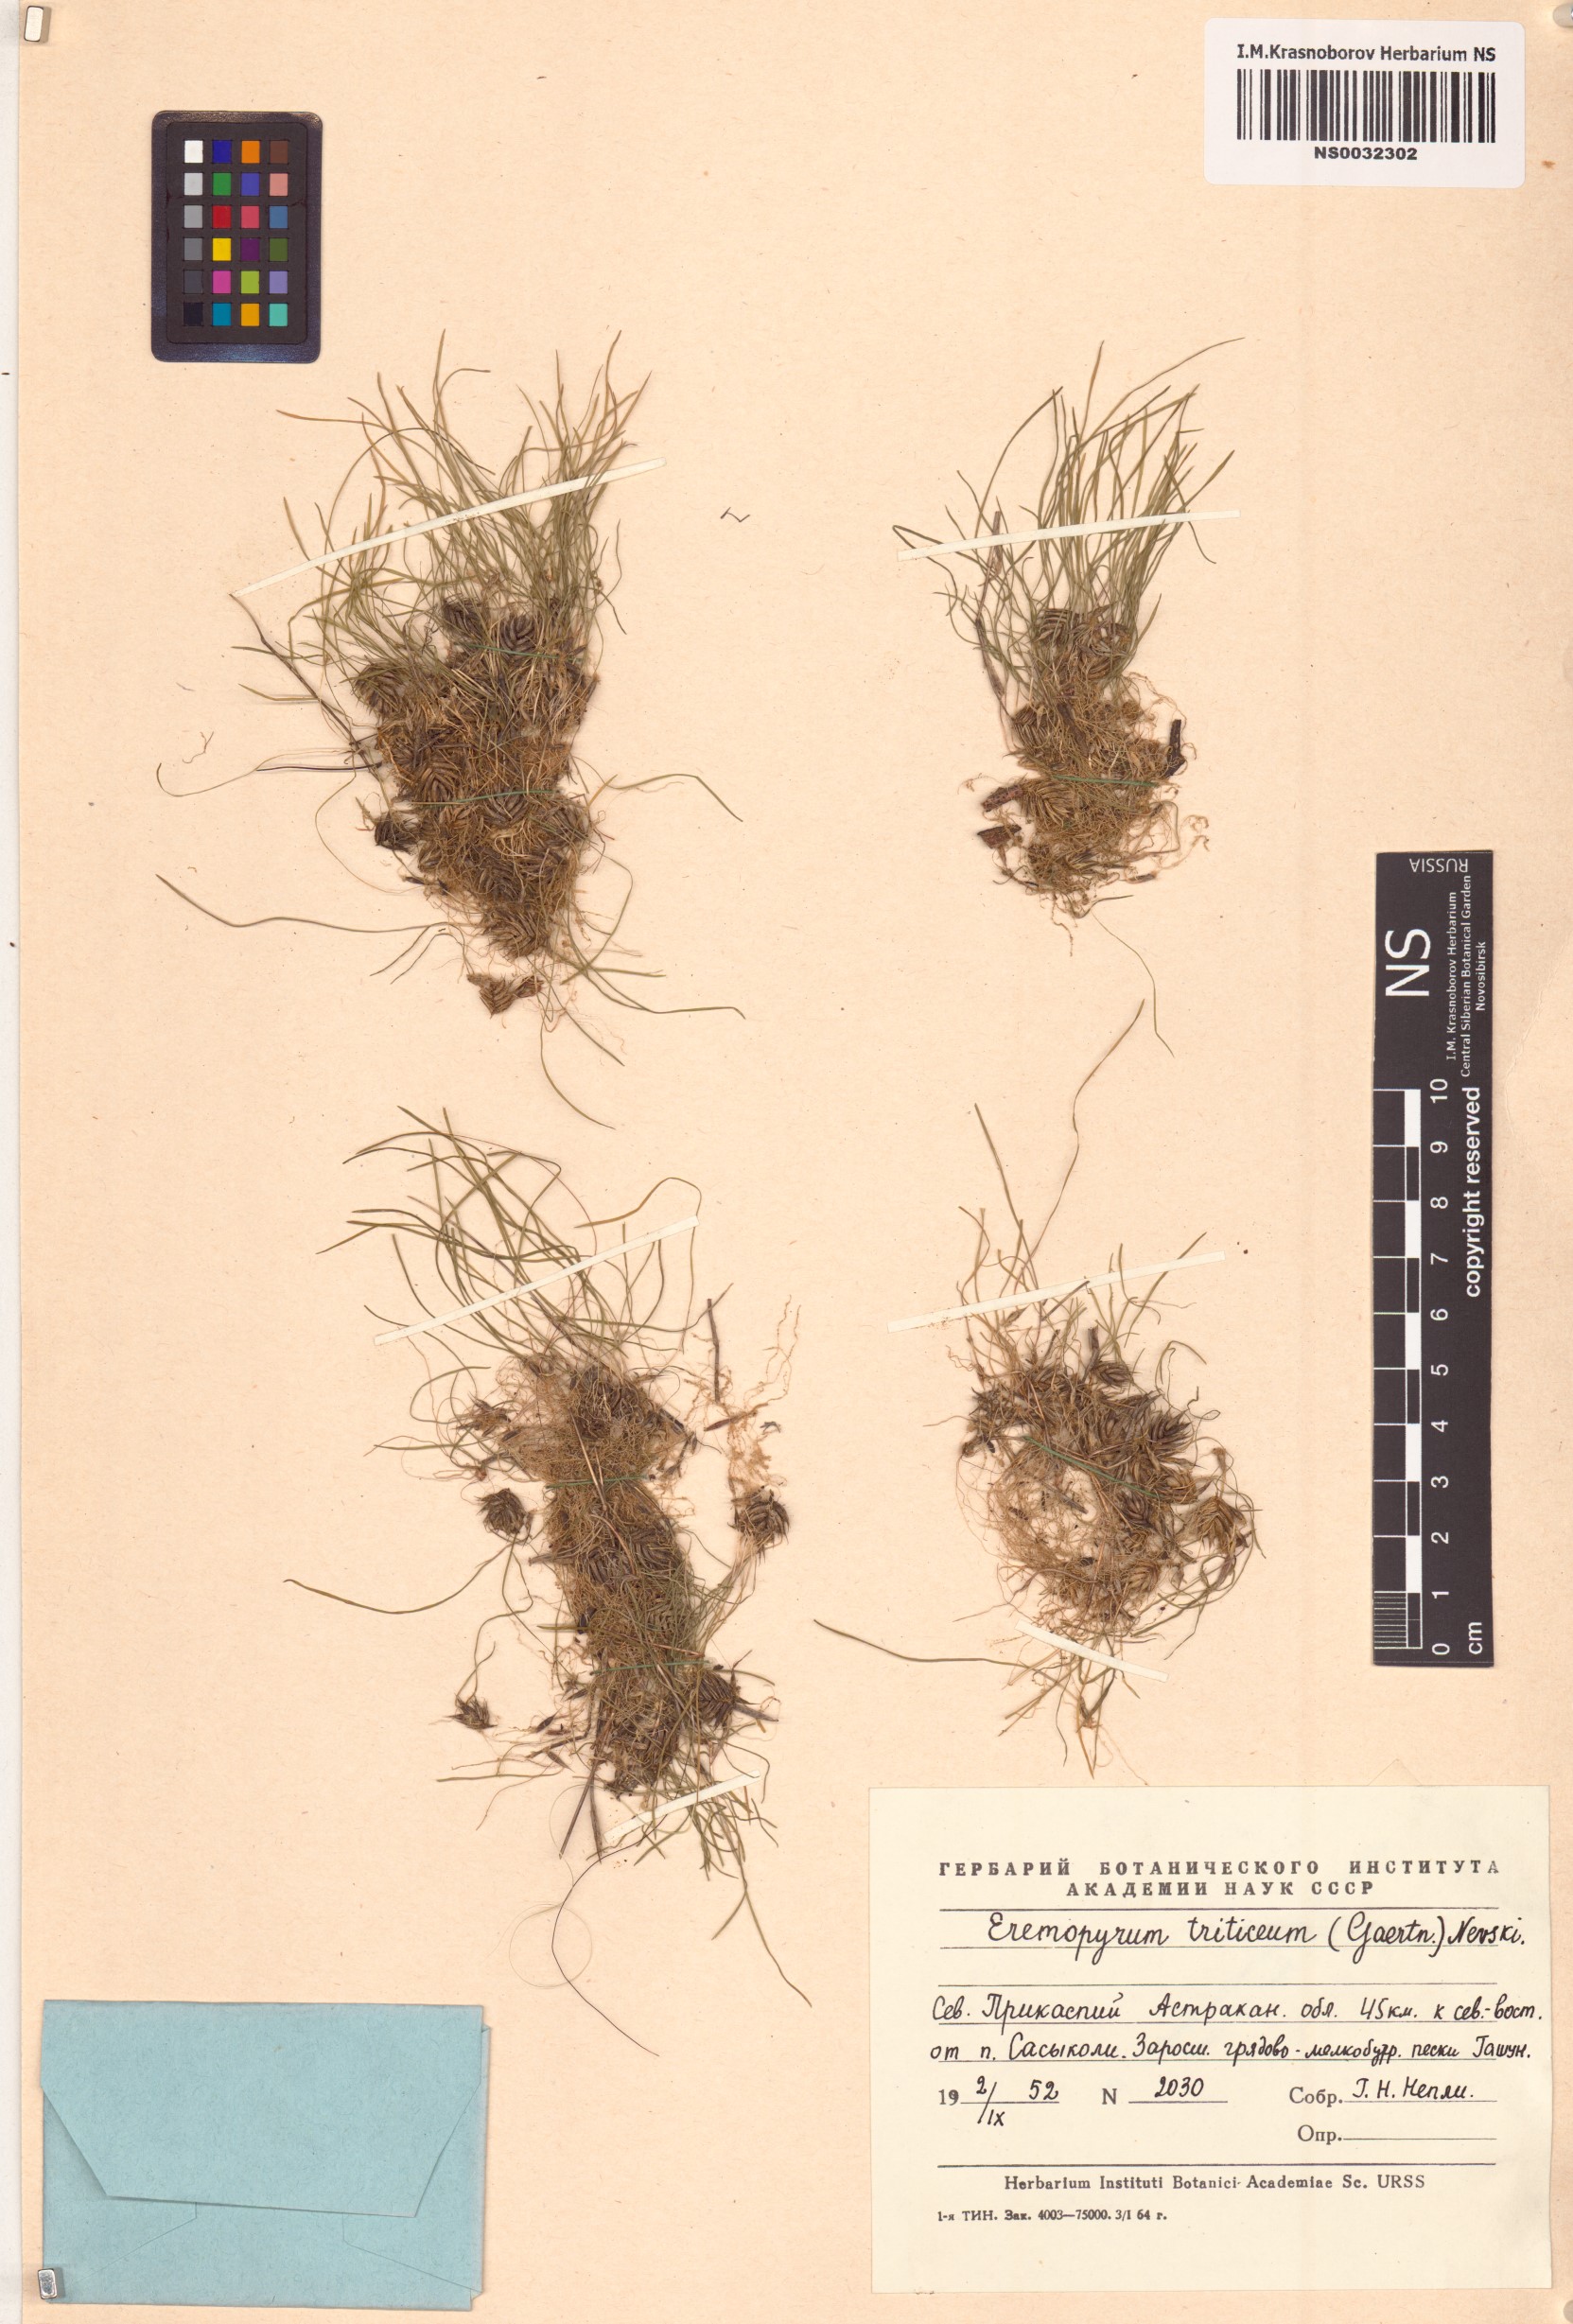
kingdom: Plantae
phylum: Tracheophyta
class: Liliopsida
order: Poales
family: Poaceae
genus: Eremopyrum
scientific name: Eremopyrum triticeum
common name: Annual wheatgrass
